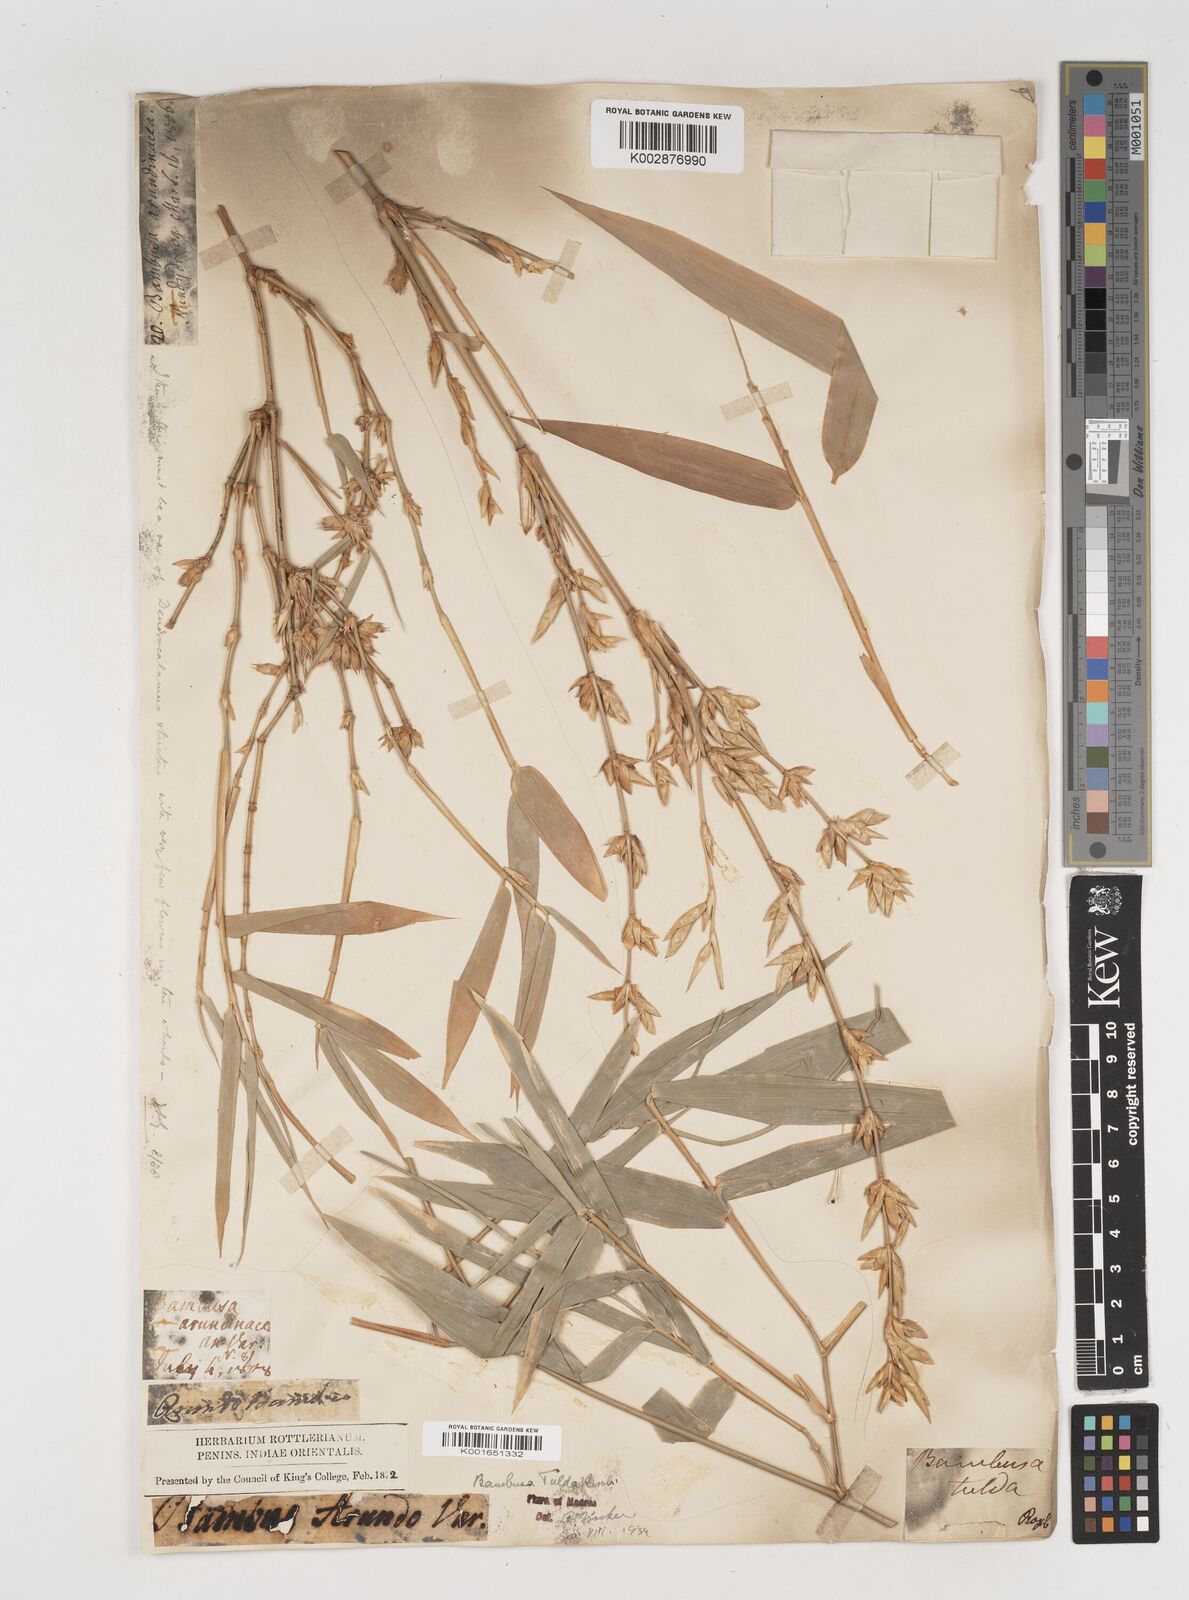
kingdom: Plantae
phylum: Tracheophyta
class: Liliopsida
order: Poales
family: Poaceae
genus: Bambusa
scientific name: Bambusa tulda
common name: Bengal bamboo
